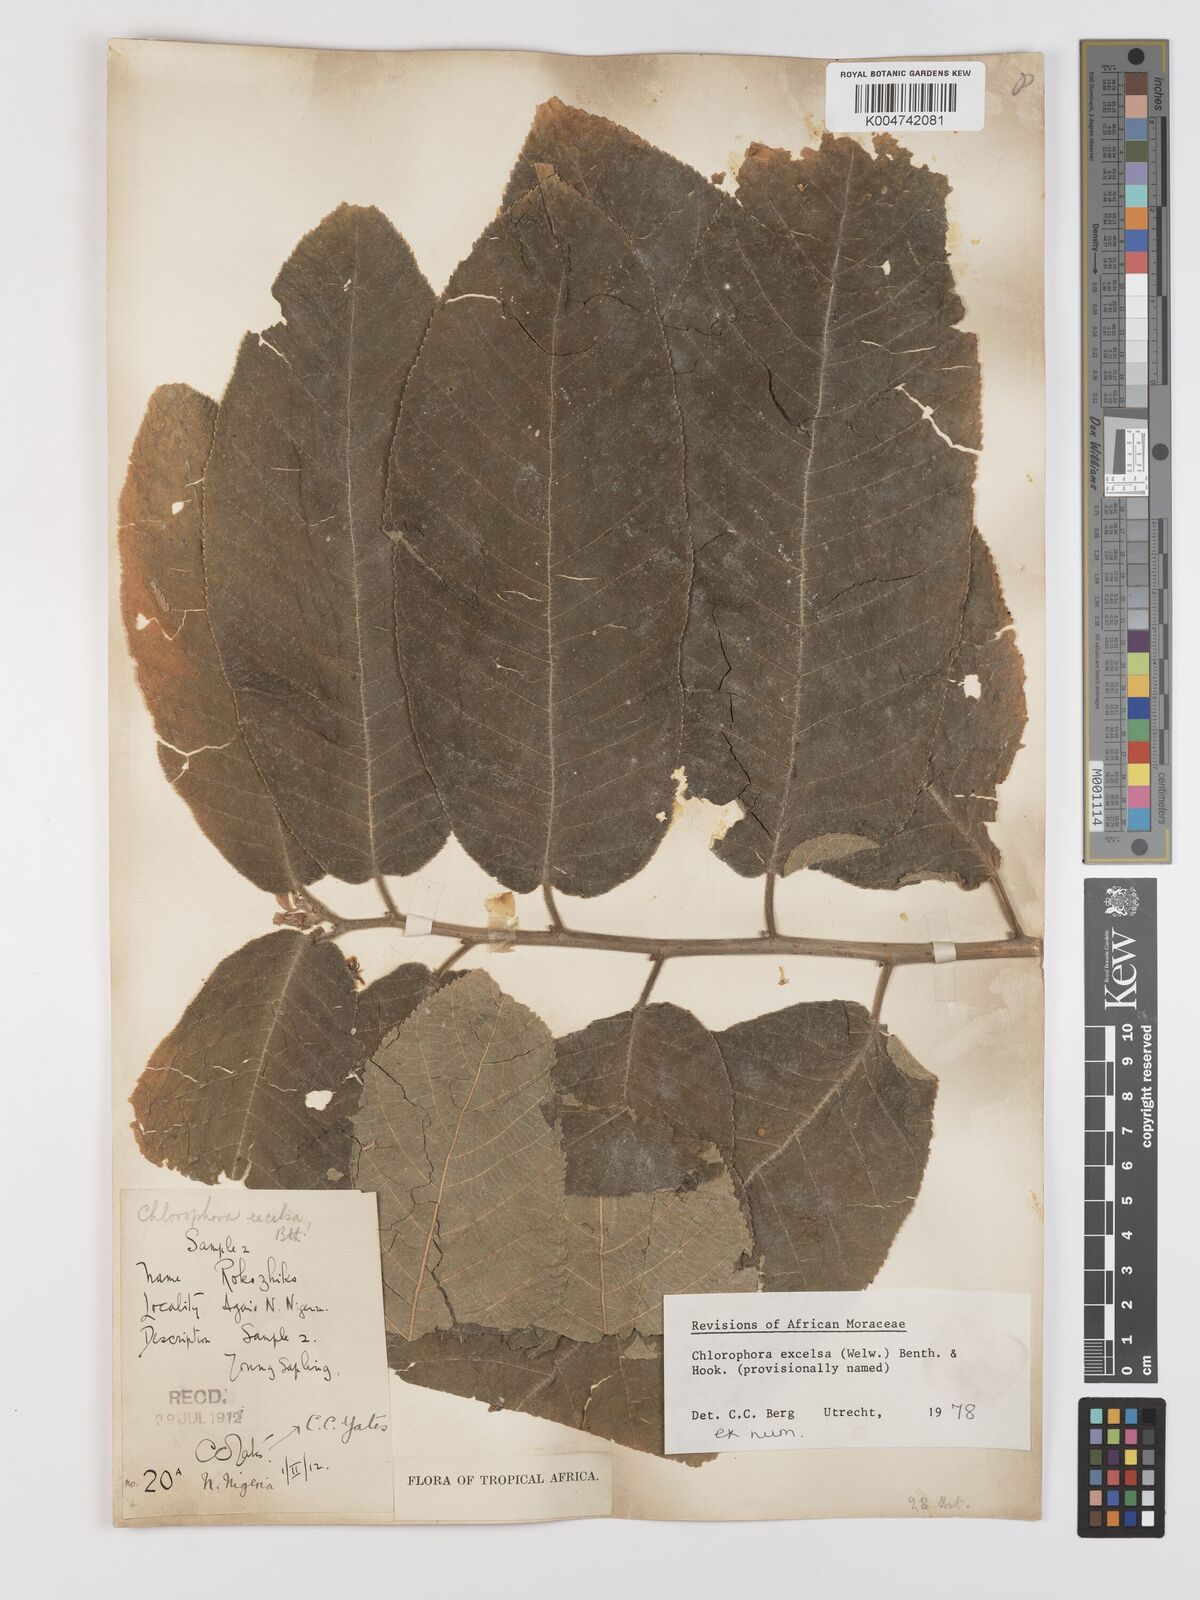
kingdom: Plantae
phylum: Tracheophyta
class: Magnoliopsida
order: Rosales
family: Moraceae
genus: Milicia
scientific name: Milicia excelsa
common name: African teak
